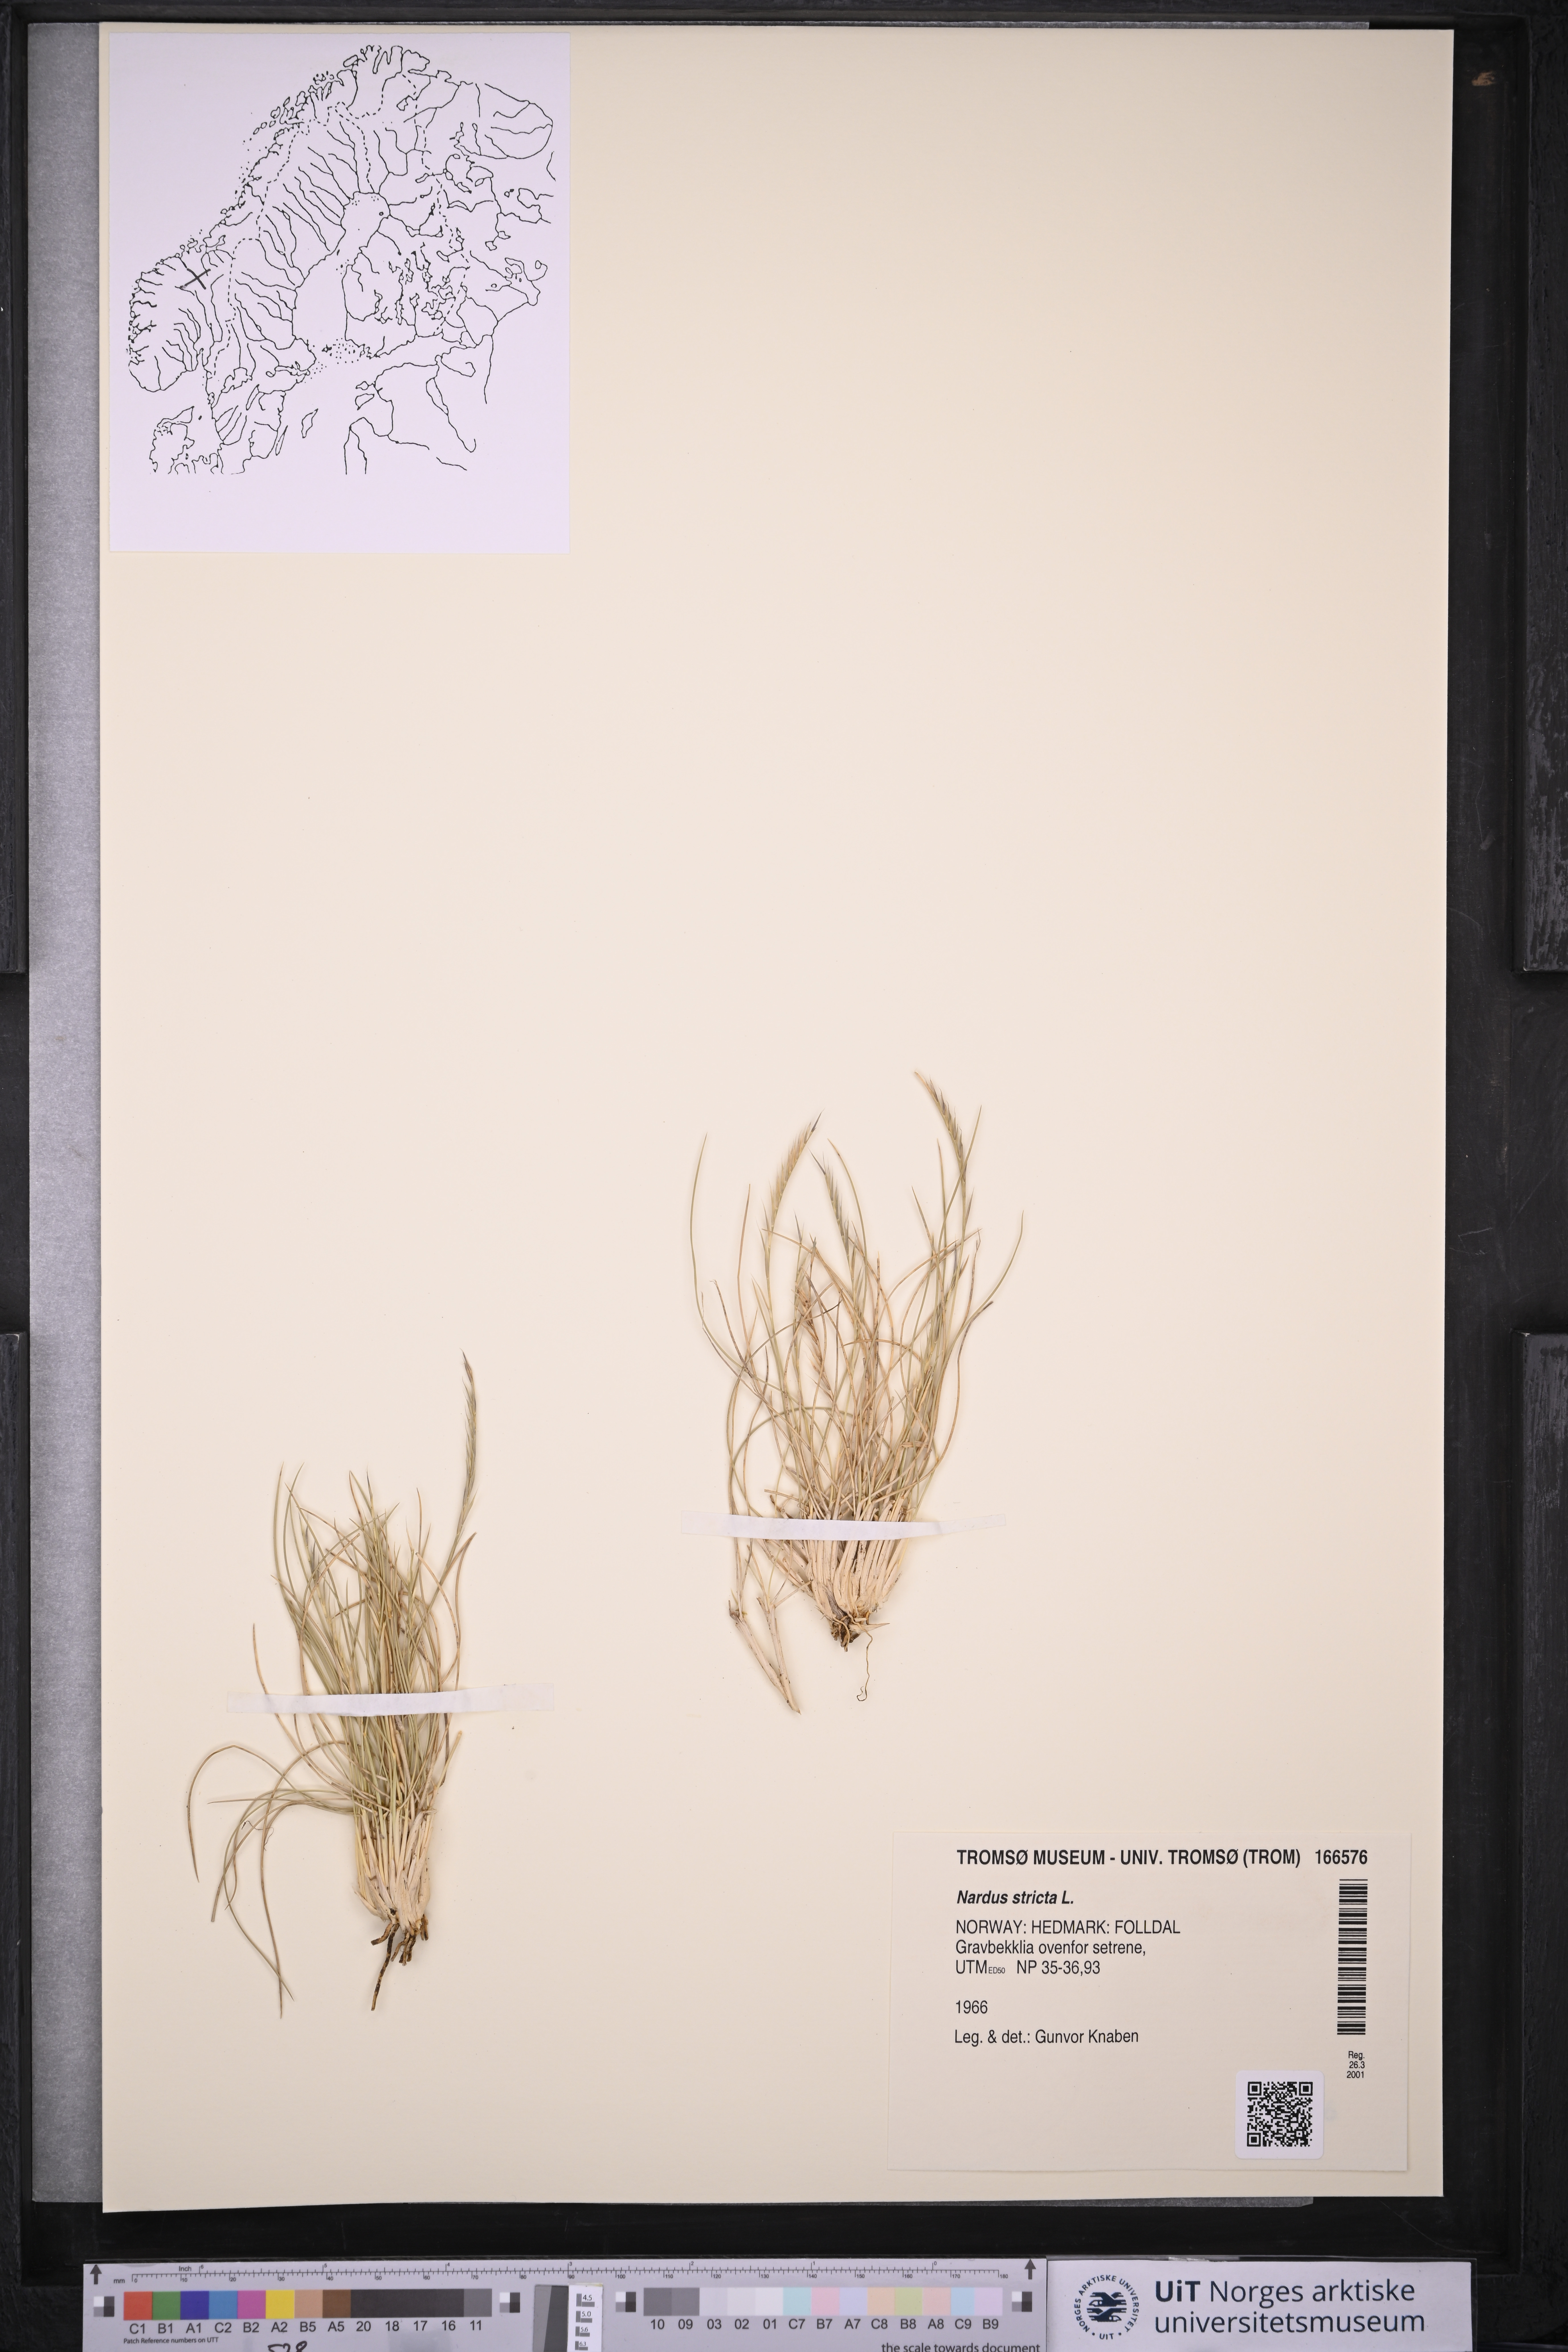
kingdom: Plantae
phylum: Tracheophyta
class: Liliopsida
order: Poales
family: Poaceae
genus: Nardus
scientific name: Nardus stricta
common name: Mat-grass
